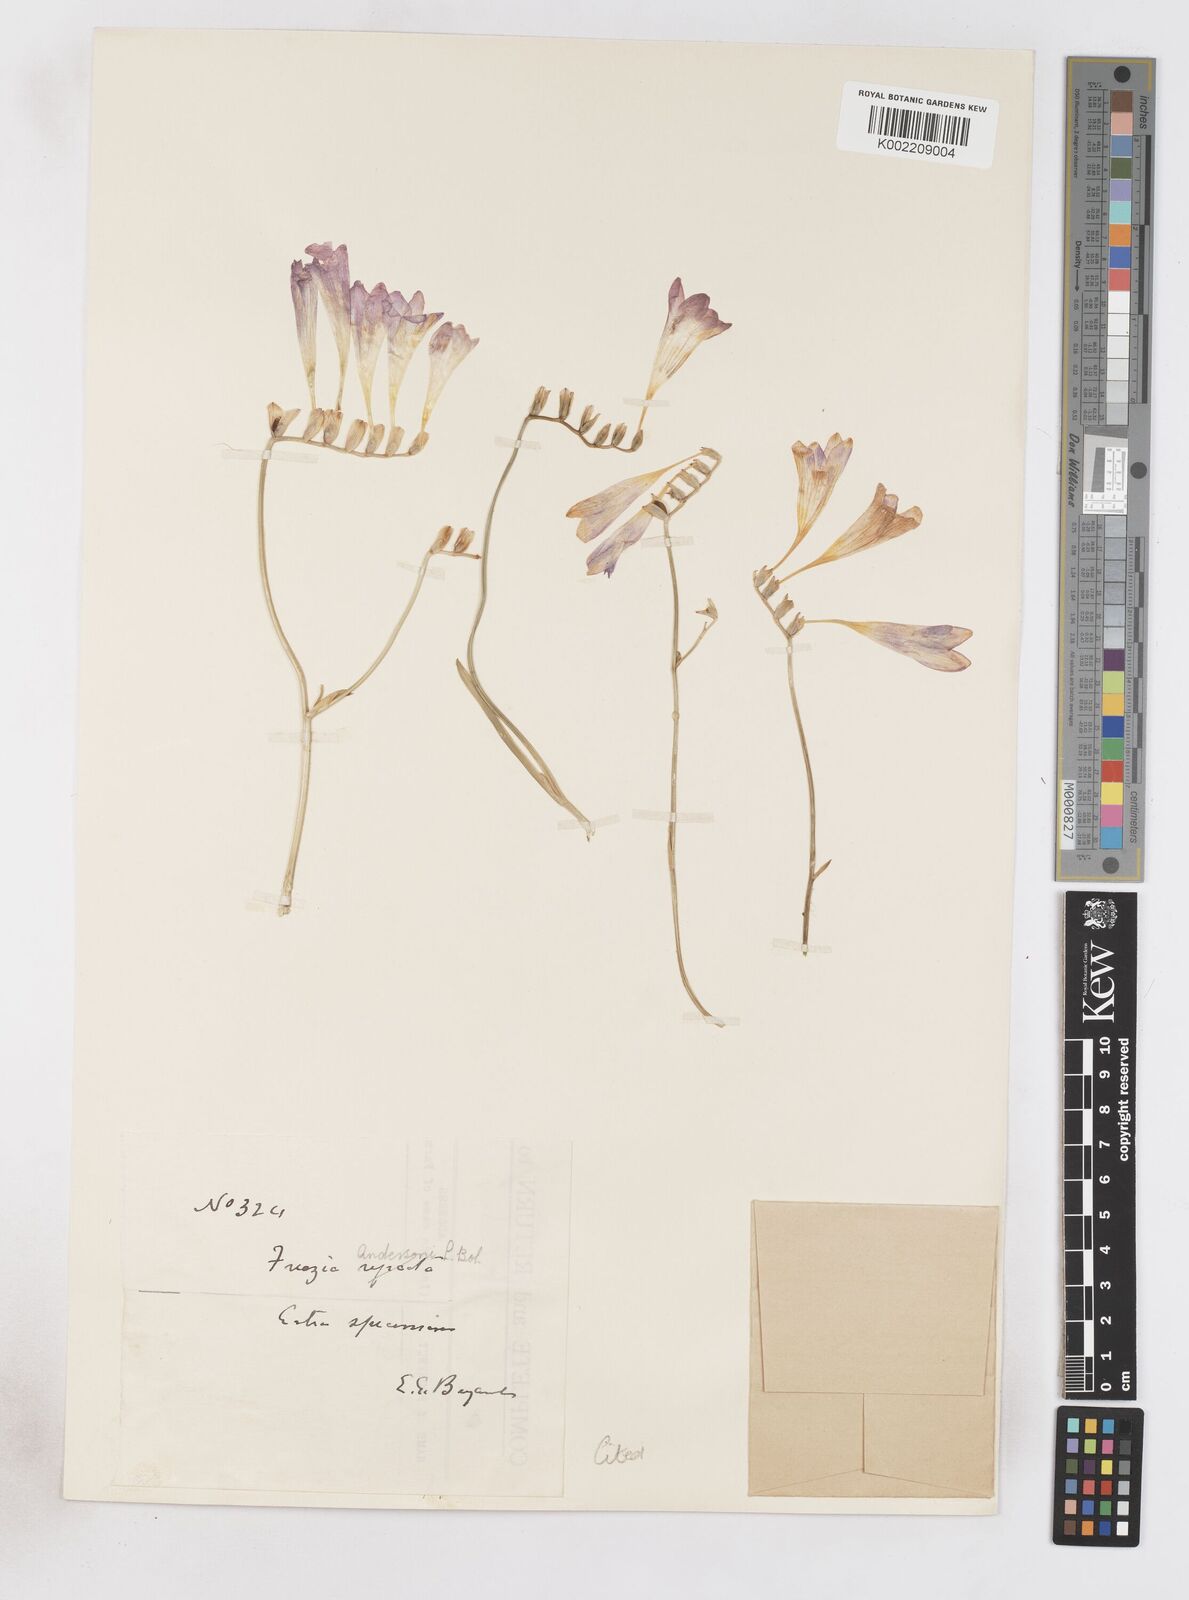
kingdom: Plantae
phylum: Tracheophyta
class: Liliopsida
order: Asparagales
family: Iridaceae
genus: Freesia
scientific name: Freesia andersoniae
